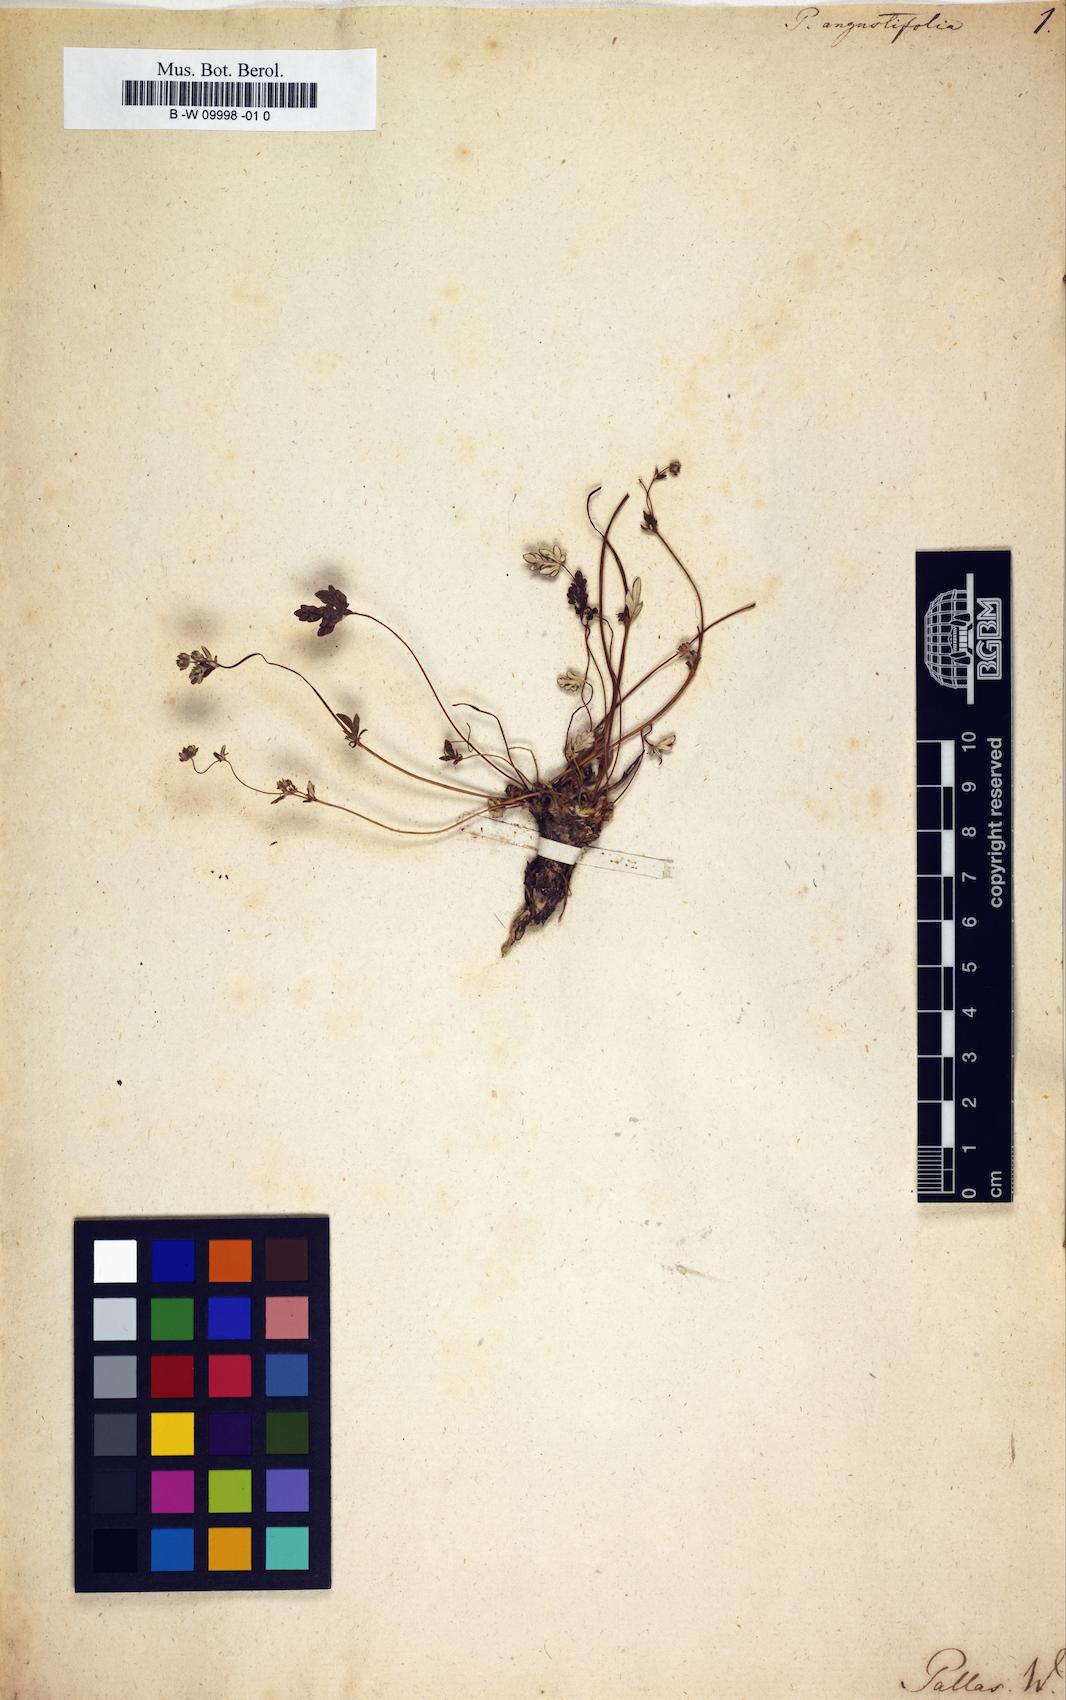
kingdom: Plantae
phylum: Tracheophyta
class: Magnoliopsida
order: Rosales
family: Rosaceae
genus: Potentilla
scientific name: Potentilla hirta
